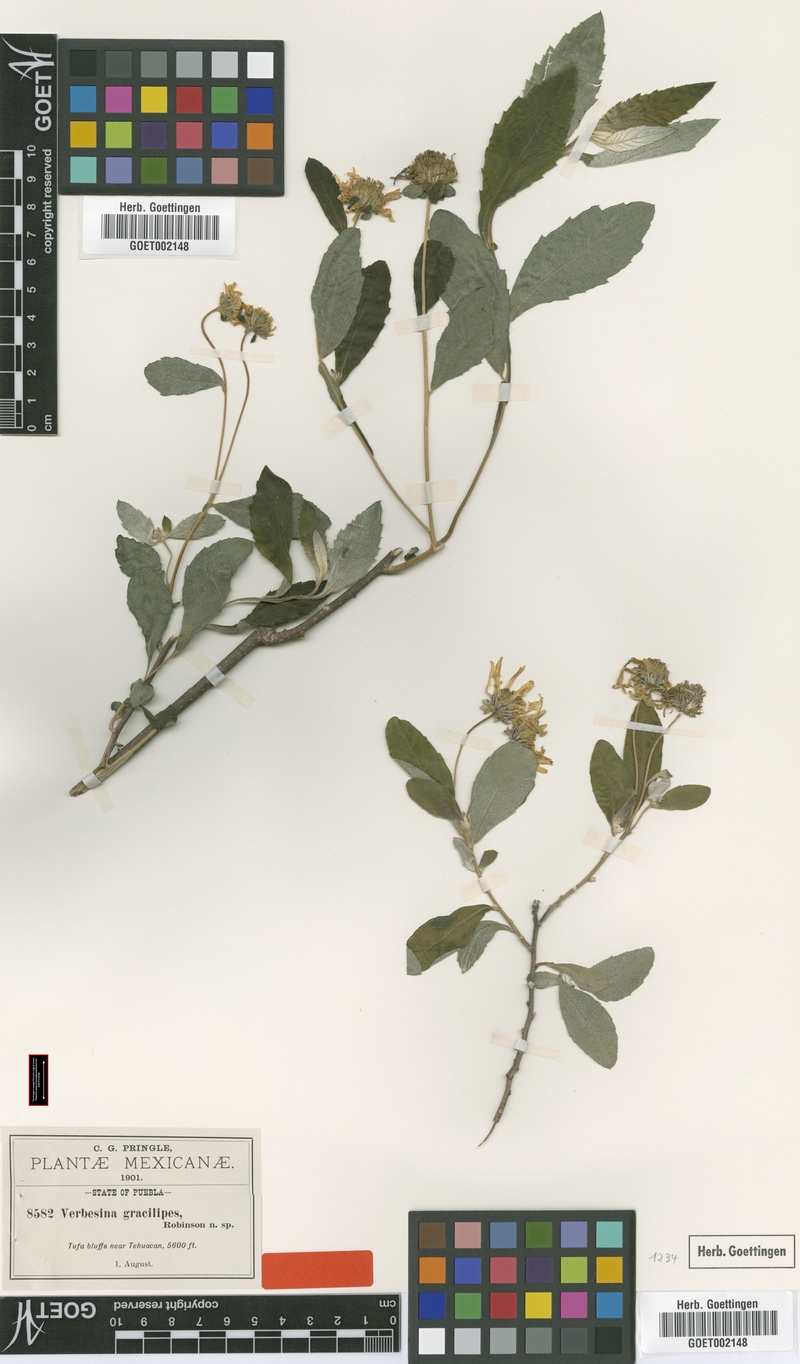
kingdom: Plantae
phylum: Tracheophyta
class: Magnoliopsida
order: Asterales
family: Asteraceae
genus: Verbesina
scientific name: Verbesina gracilipes
